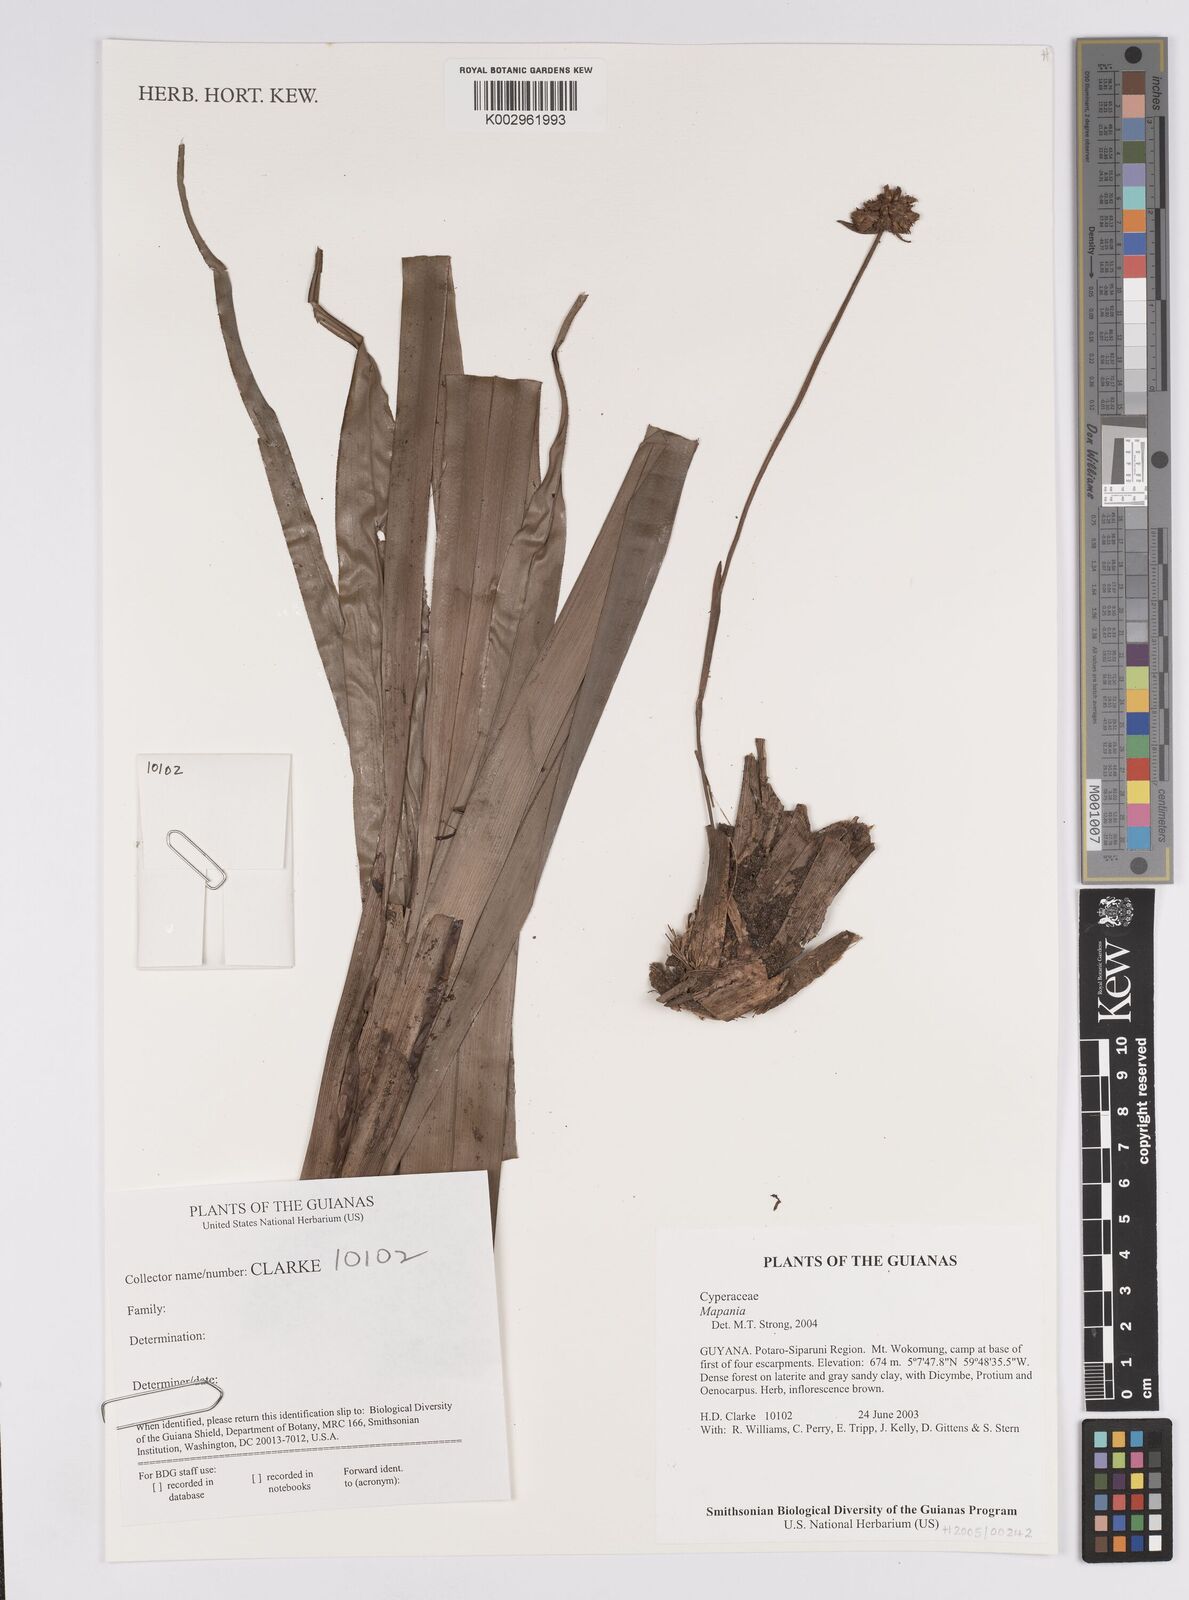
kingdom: Plantae
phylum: Tracheophyta
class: Liliopsida
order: Poales
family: Cyperaceae
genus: Mapania
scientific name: Mapania
